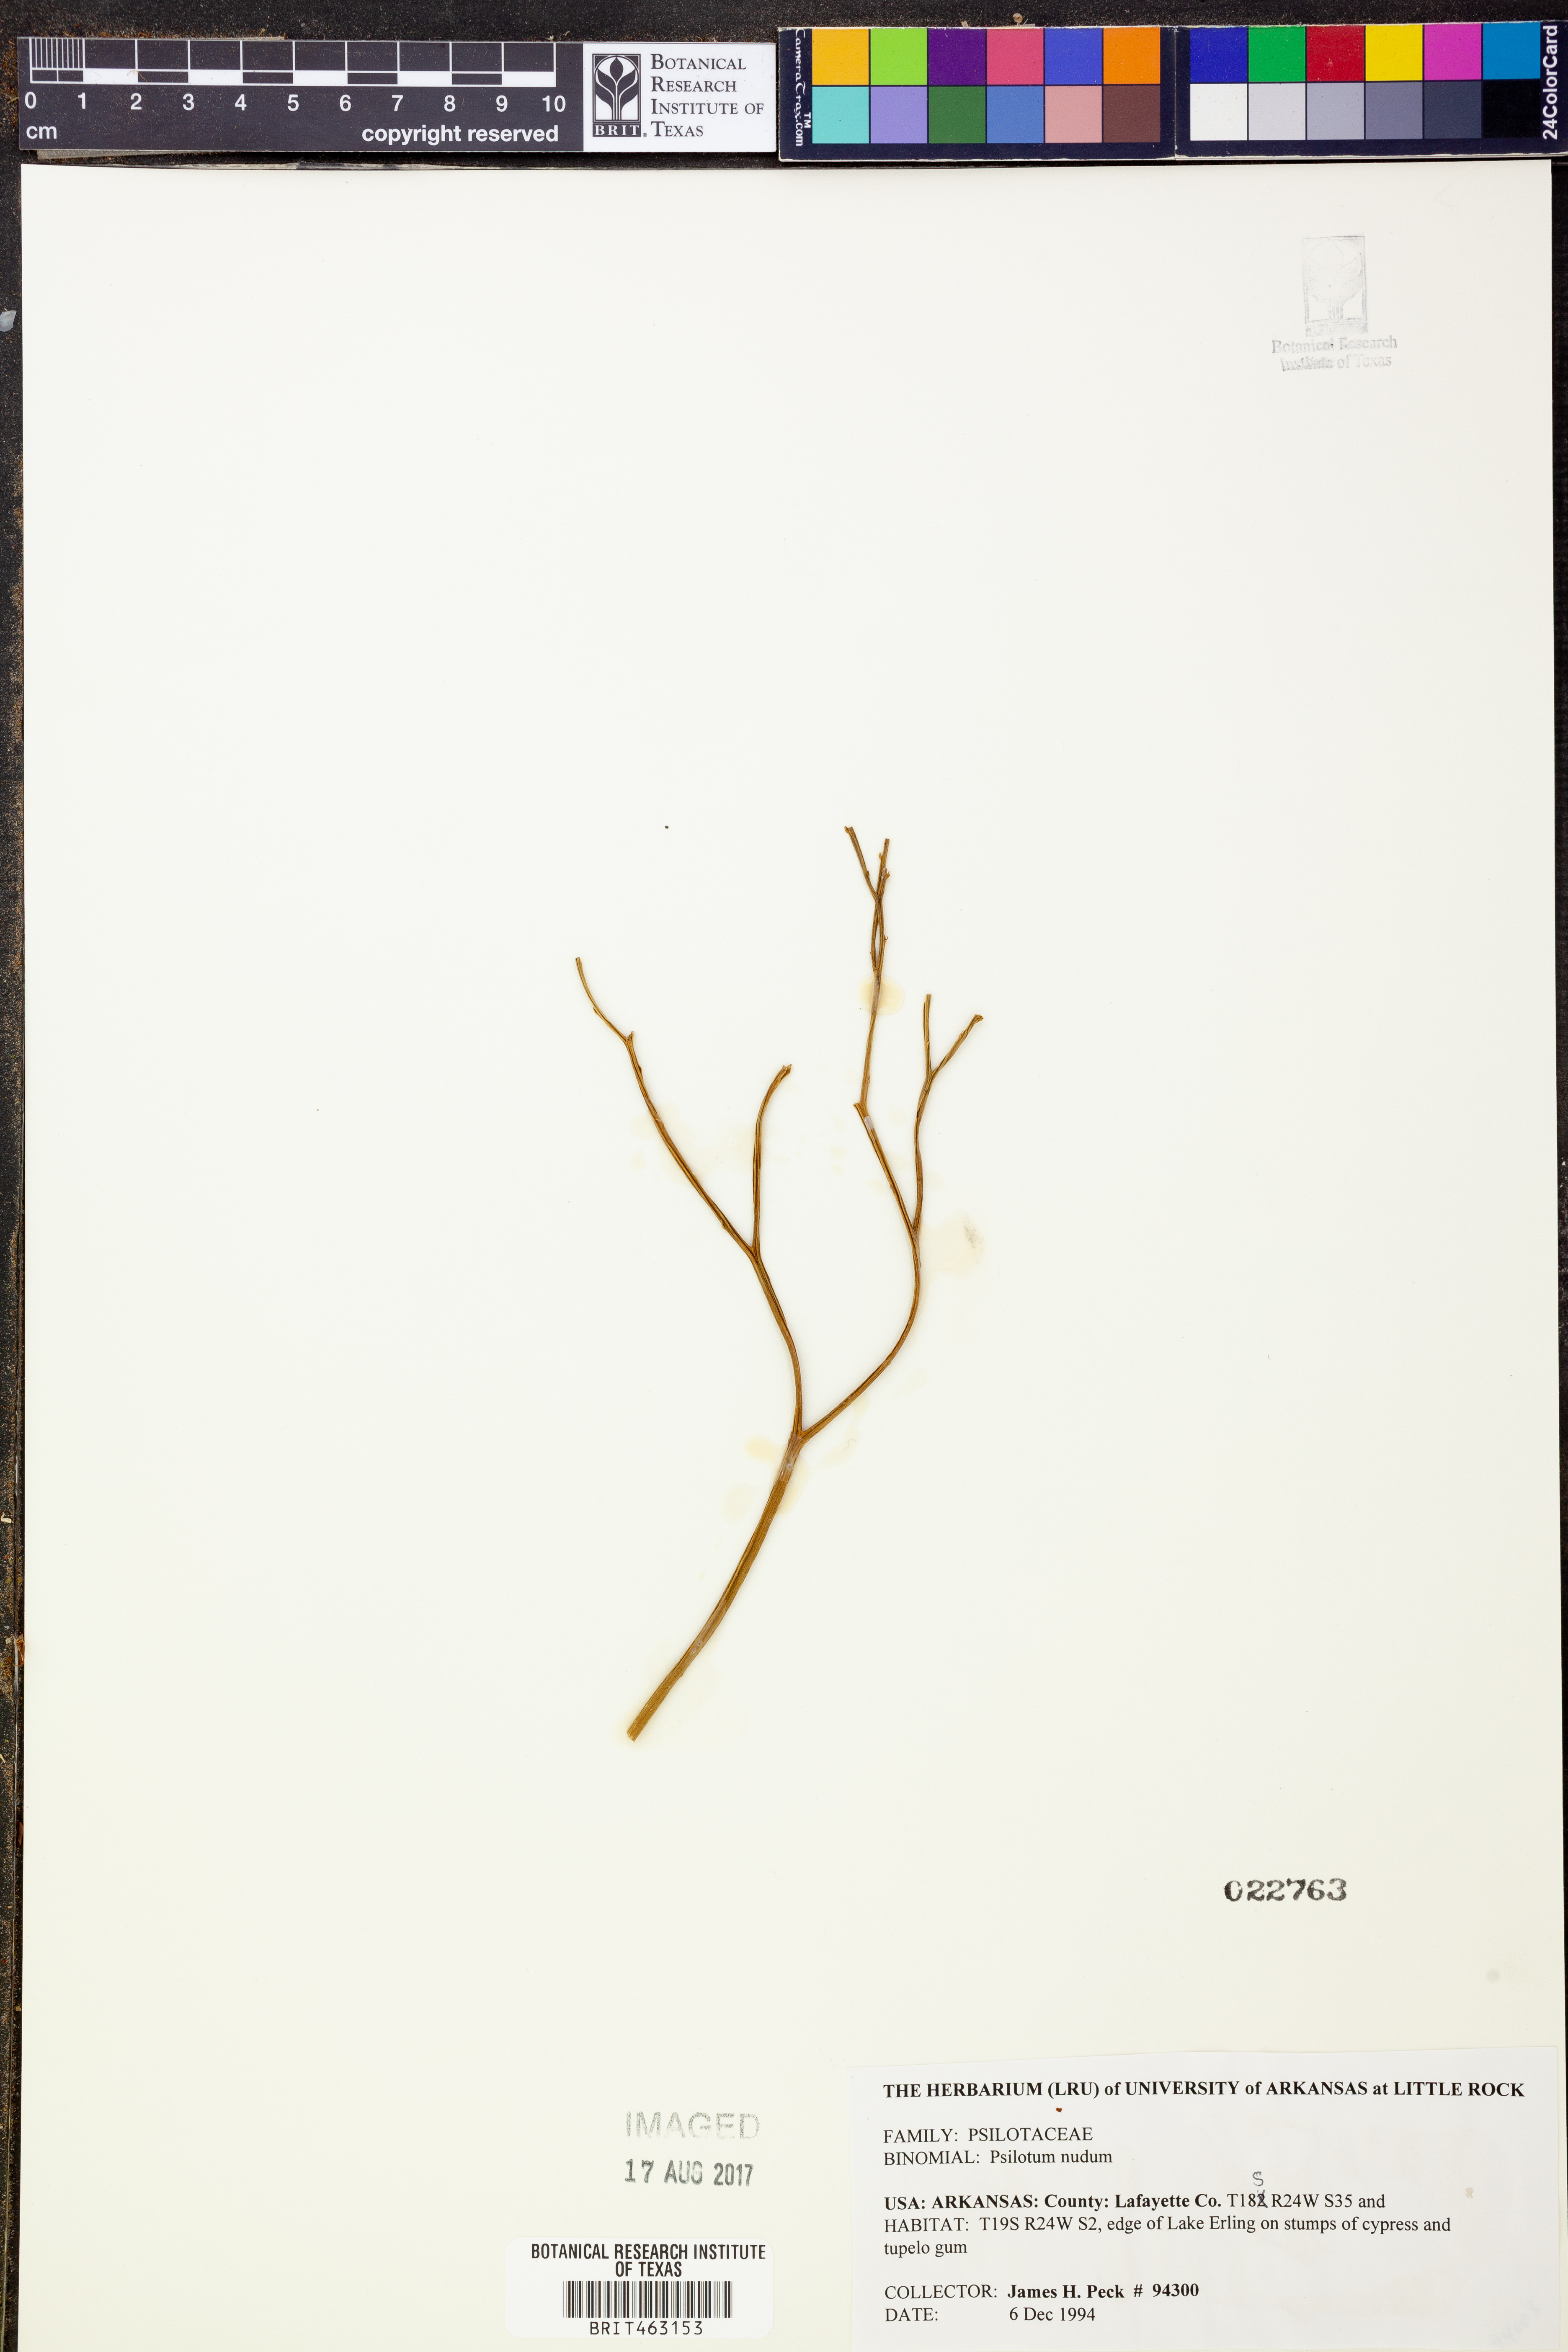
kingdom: Plantae
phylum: Tracheophyta
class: Polypodiopsida
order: Psilotales
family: Psilotaceae
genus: Psilotum
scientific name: Psilotum nudum
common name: Skeleton fork fern
